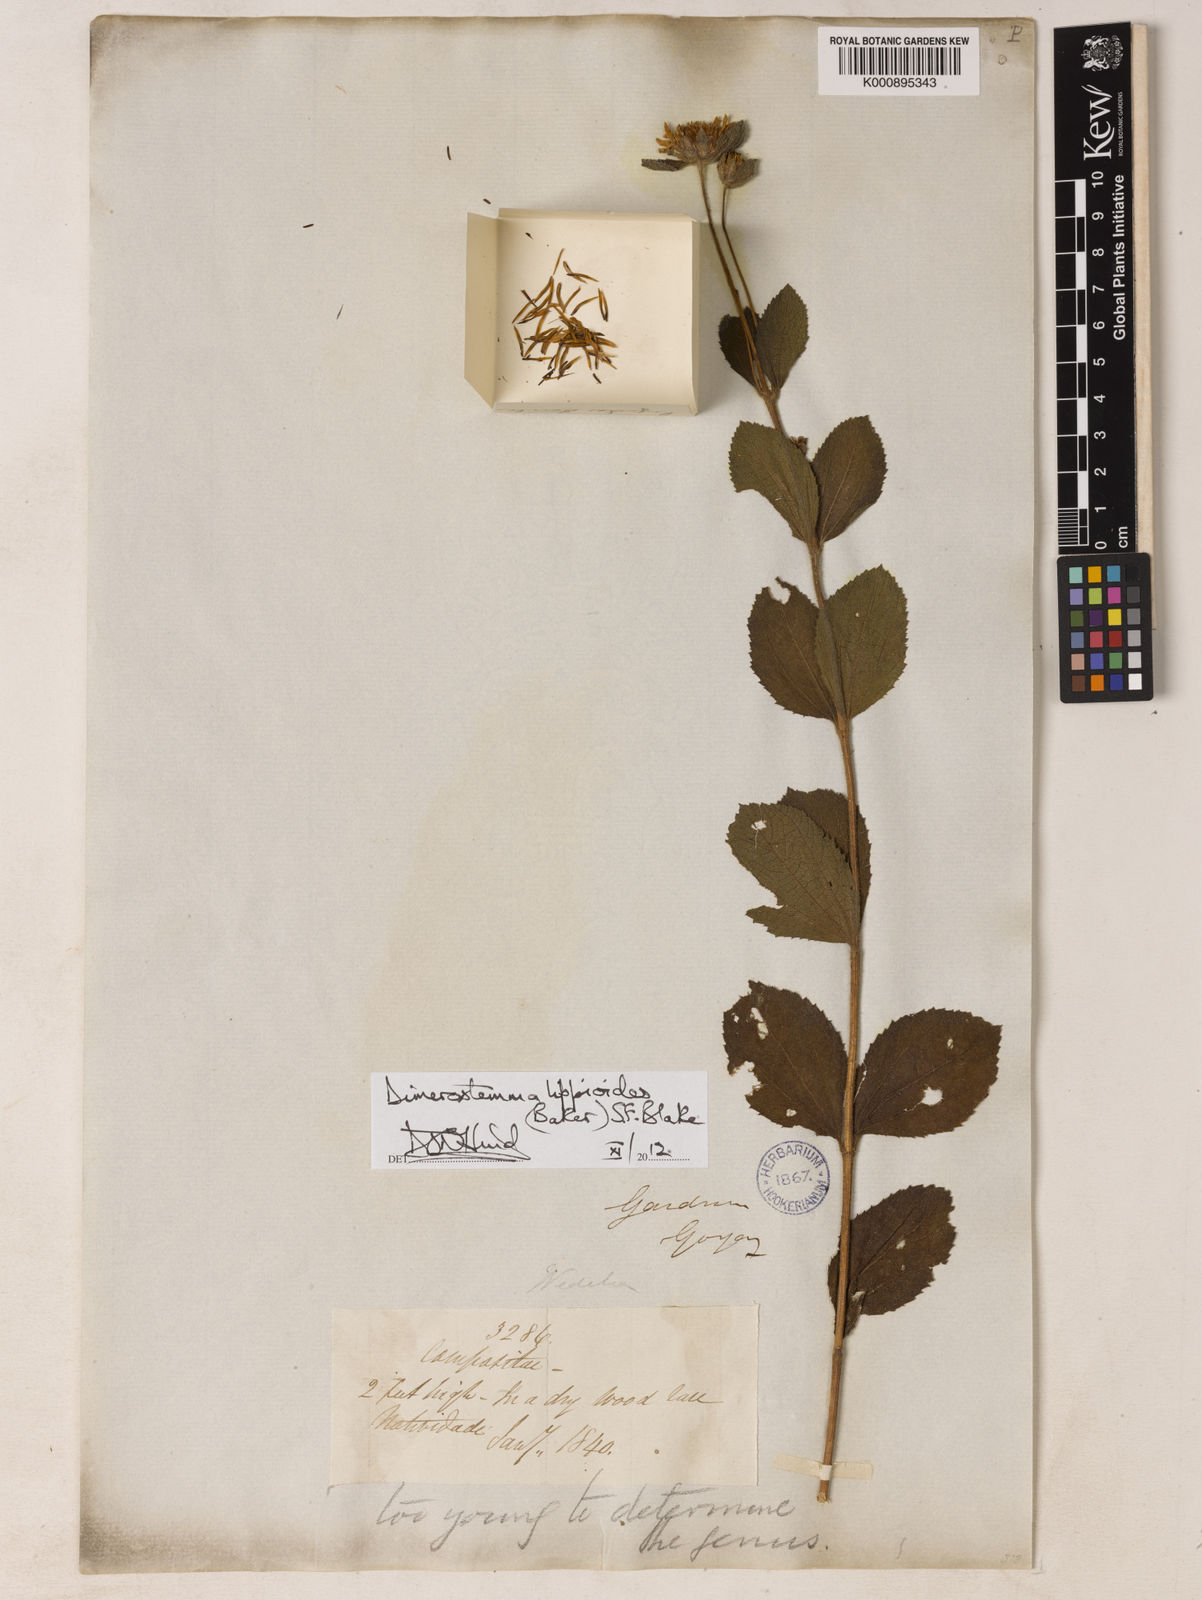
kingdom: Plantae
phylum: Tracheophyta
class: Magnoliopsida
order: Asterales
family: Asteraceae
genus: Dimerostemma
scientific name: Dimerostemma lippioides
